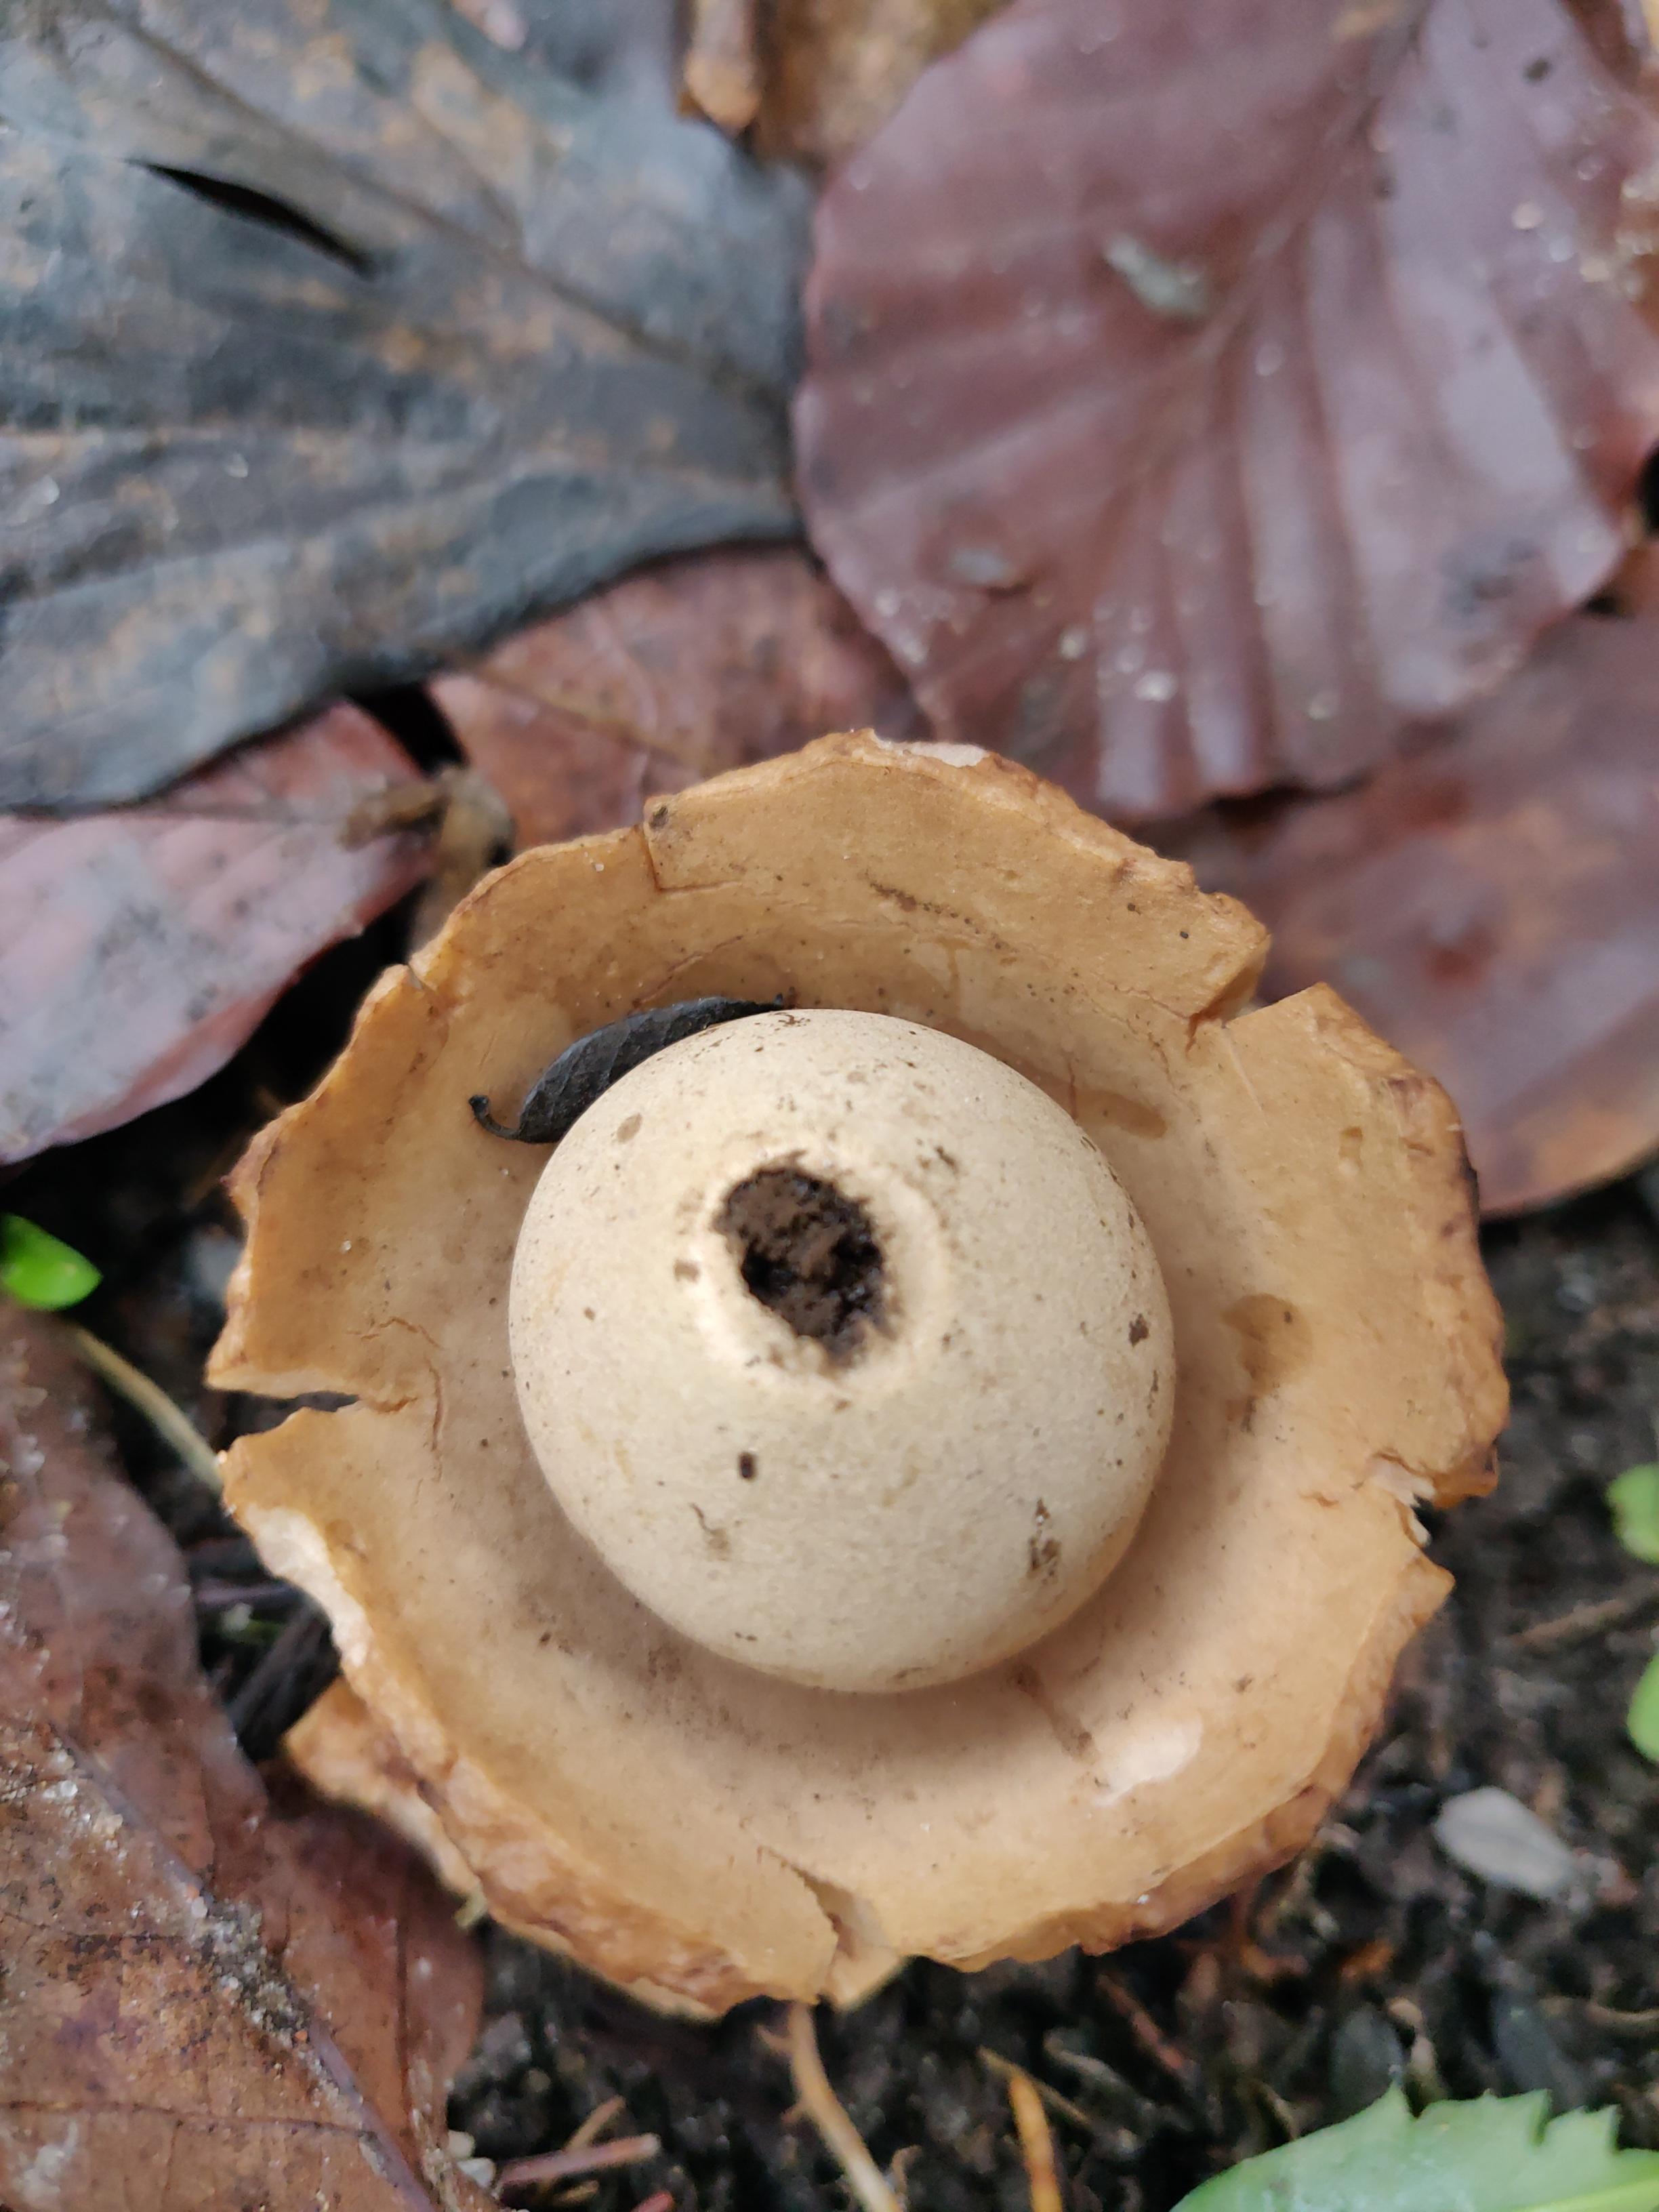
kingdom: Fungi
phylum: Basidiomycota
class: Agaricomycetes
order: Geastrales
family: Geastraceae
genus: Geastrum
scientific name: Geastrum michelianum
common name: kødet stjernebold
